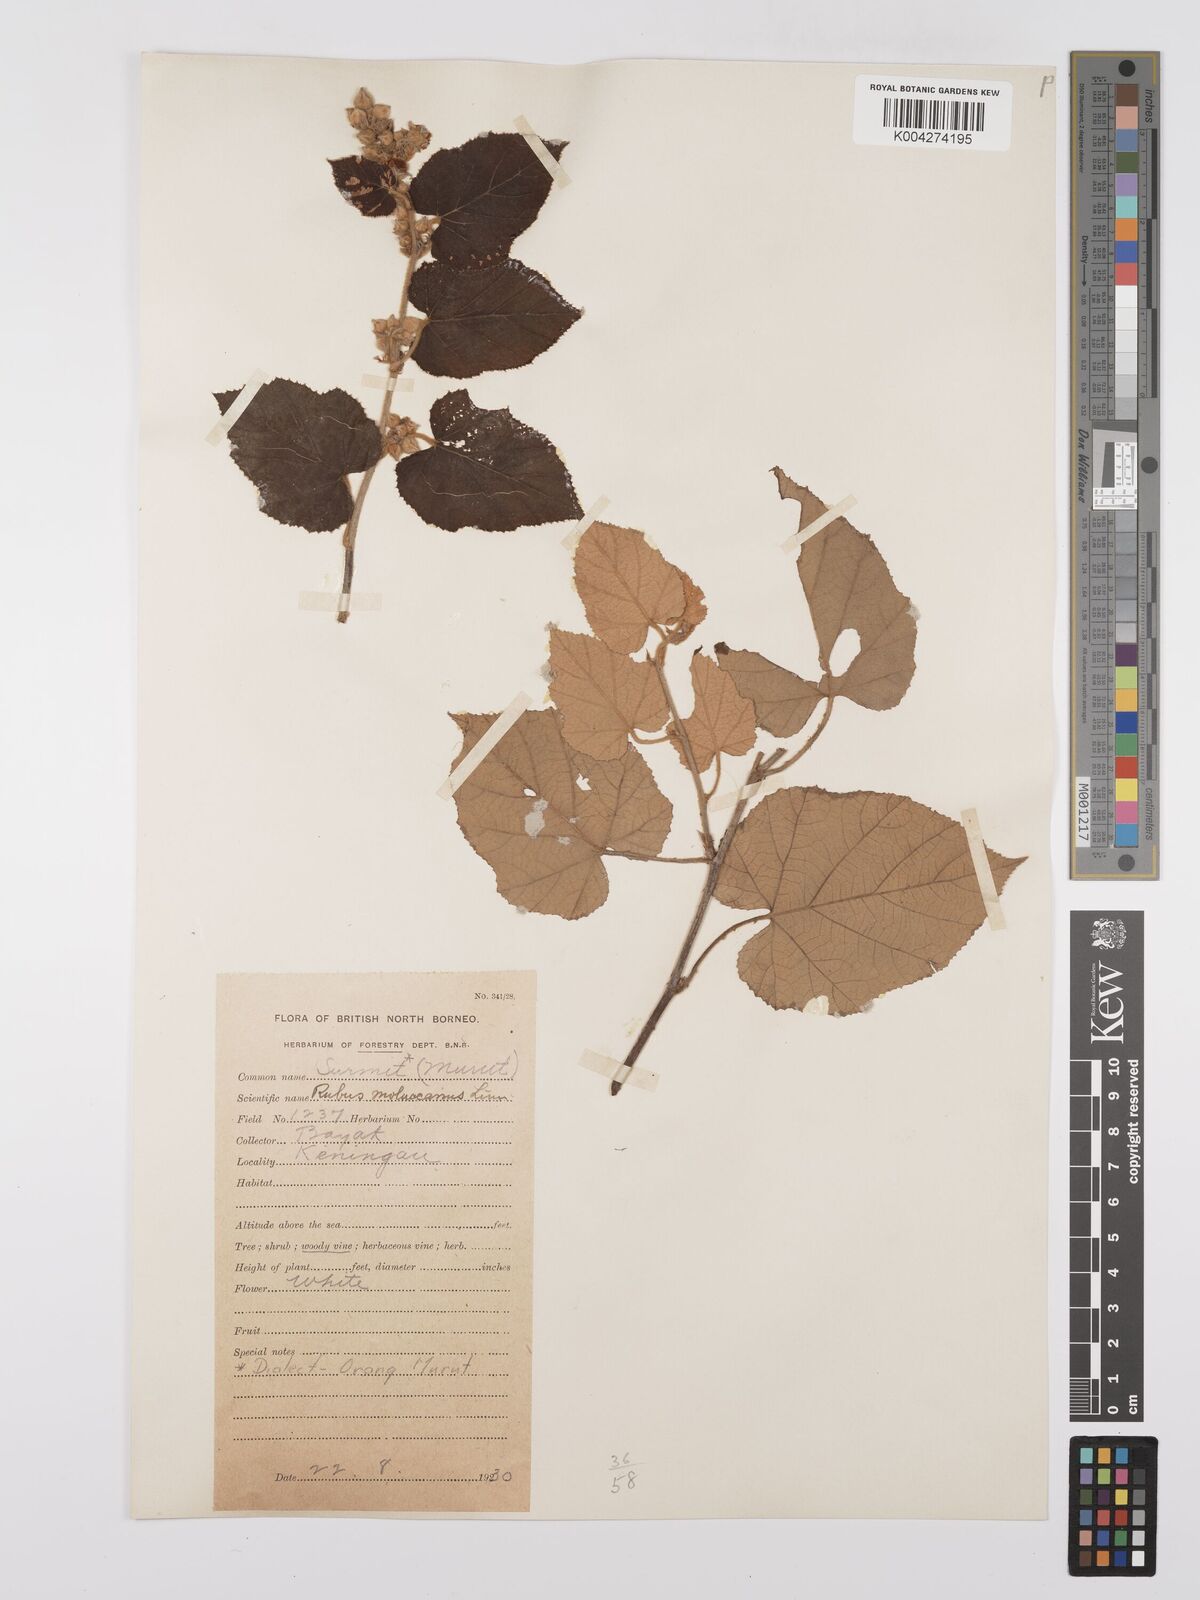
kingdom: Plantae
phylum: Tracheophyta
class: Magnoliopsida
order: Rosales
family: Rosaceae
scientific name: Rosaceae
